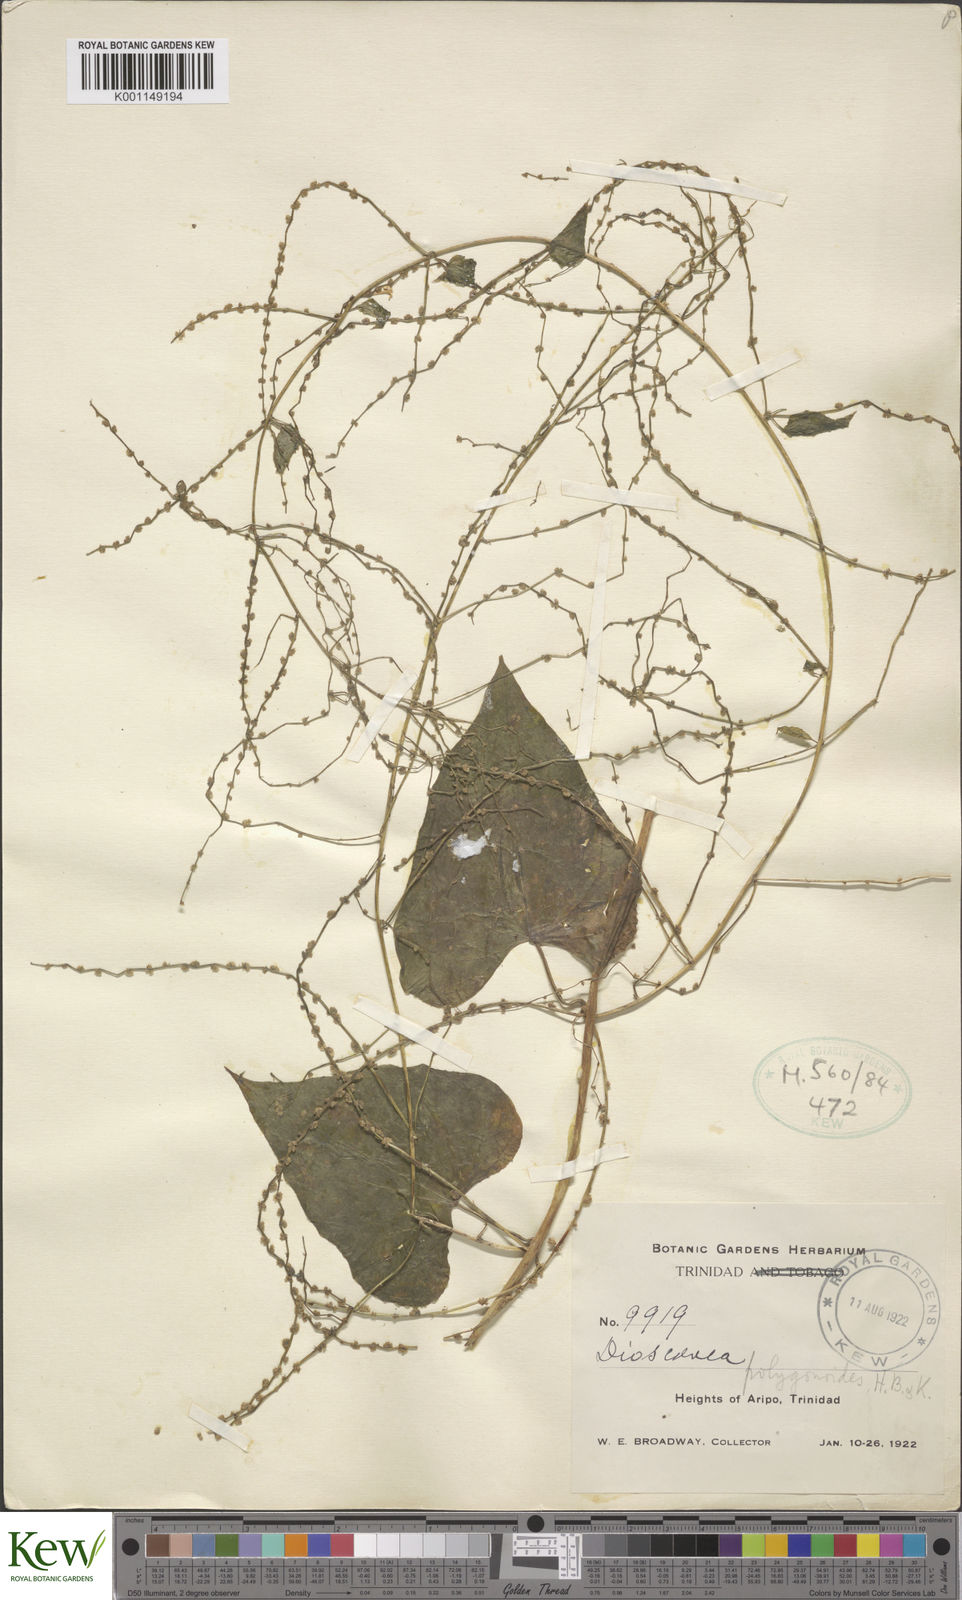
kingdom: Plantae
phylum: Tracheophyta
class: Liliopsida
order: Dioscoreales
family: Dioscoreaceae
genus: Dioscorea
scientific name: Dioscorea polygonoides
